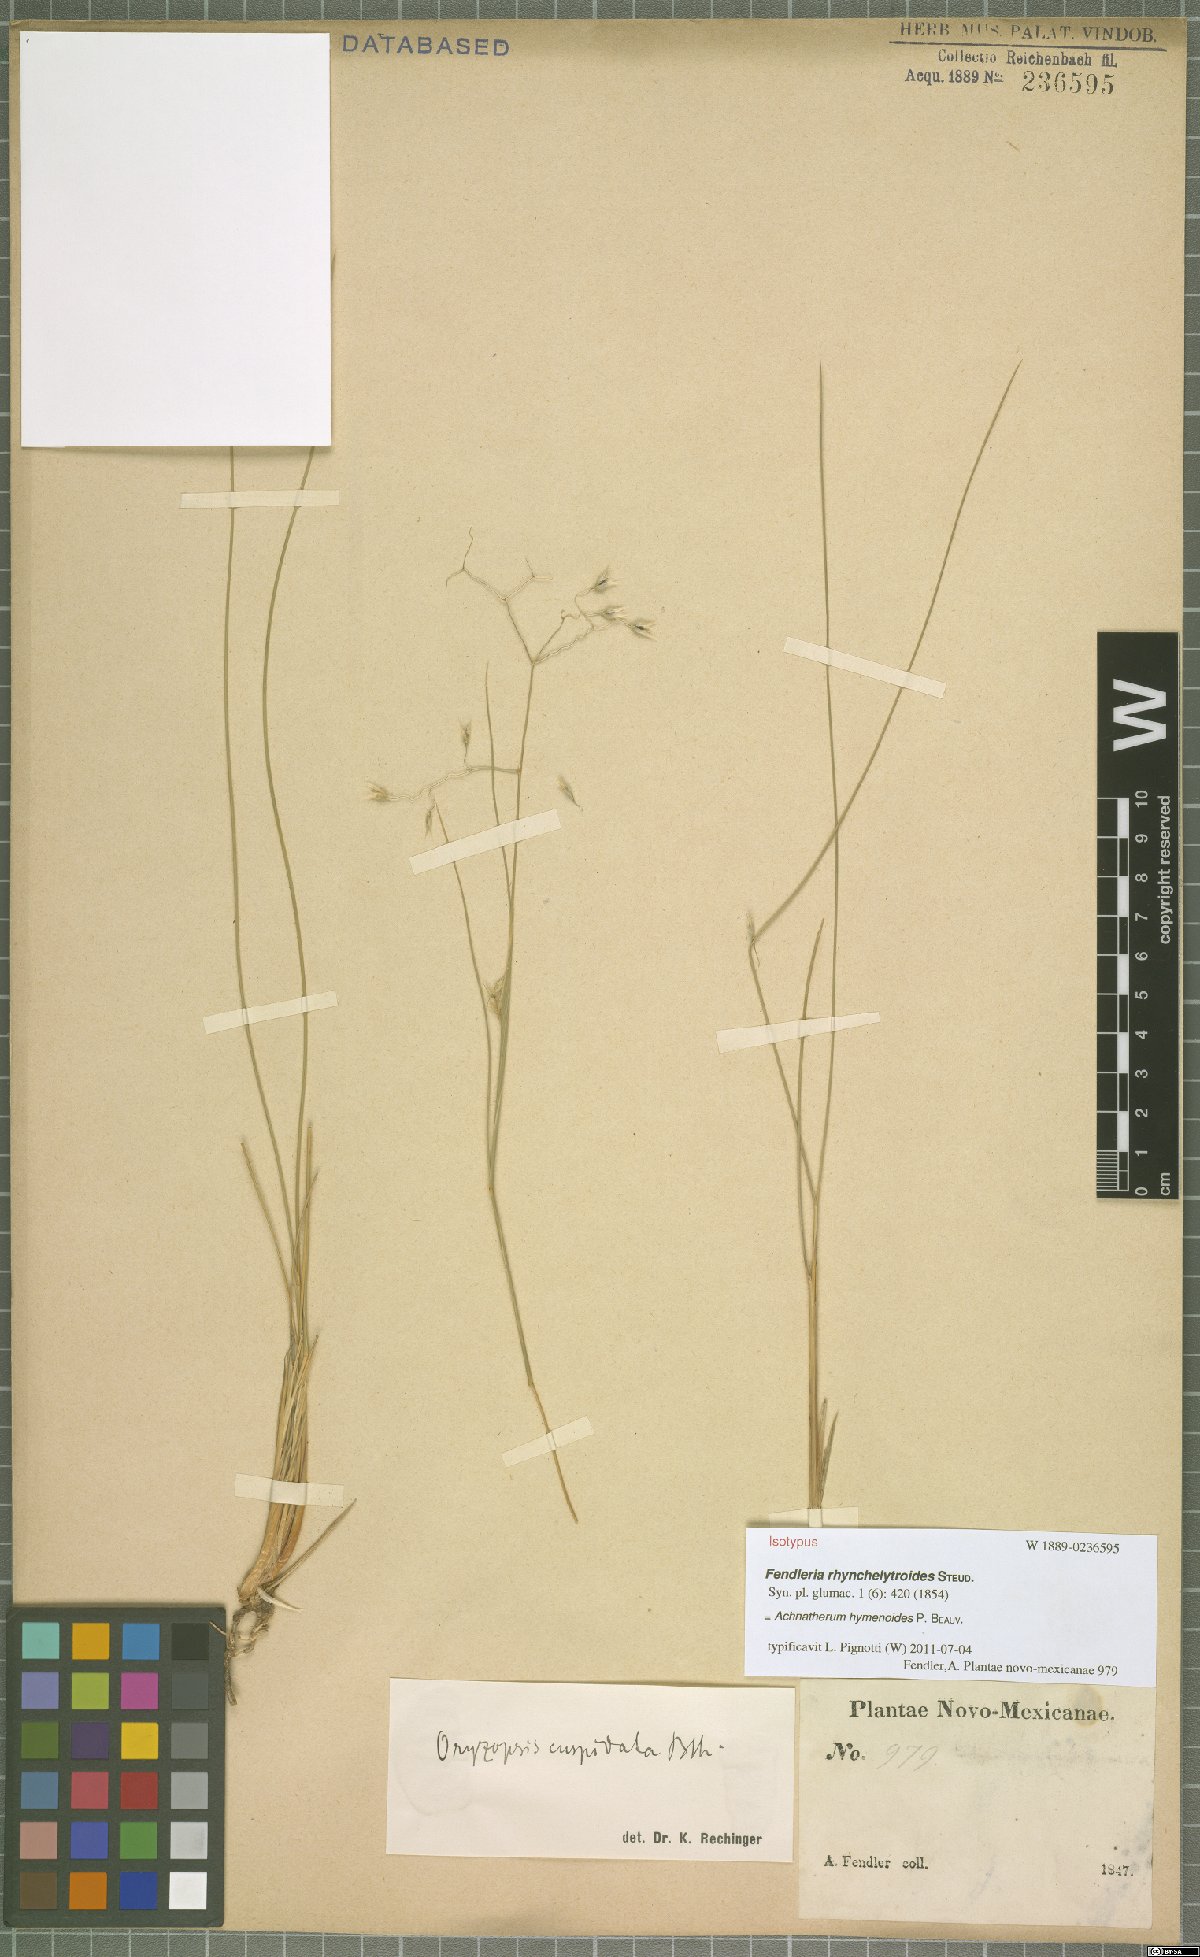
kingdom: Plantae
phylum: Tracheophyta
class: Liliopsida
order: Poales
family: Poaceae
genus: Eriocoma
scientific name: Eriocoma hymenoides
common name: Indian mountain ricegrass
